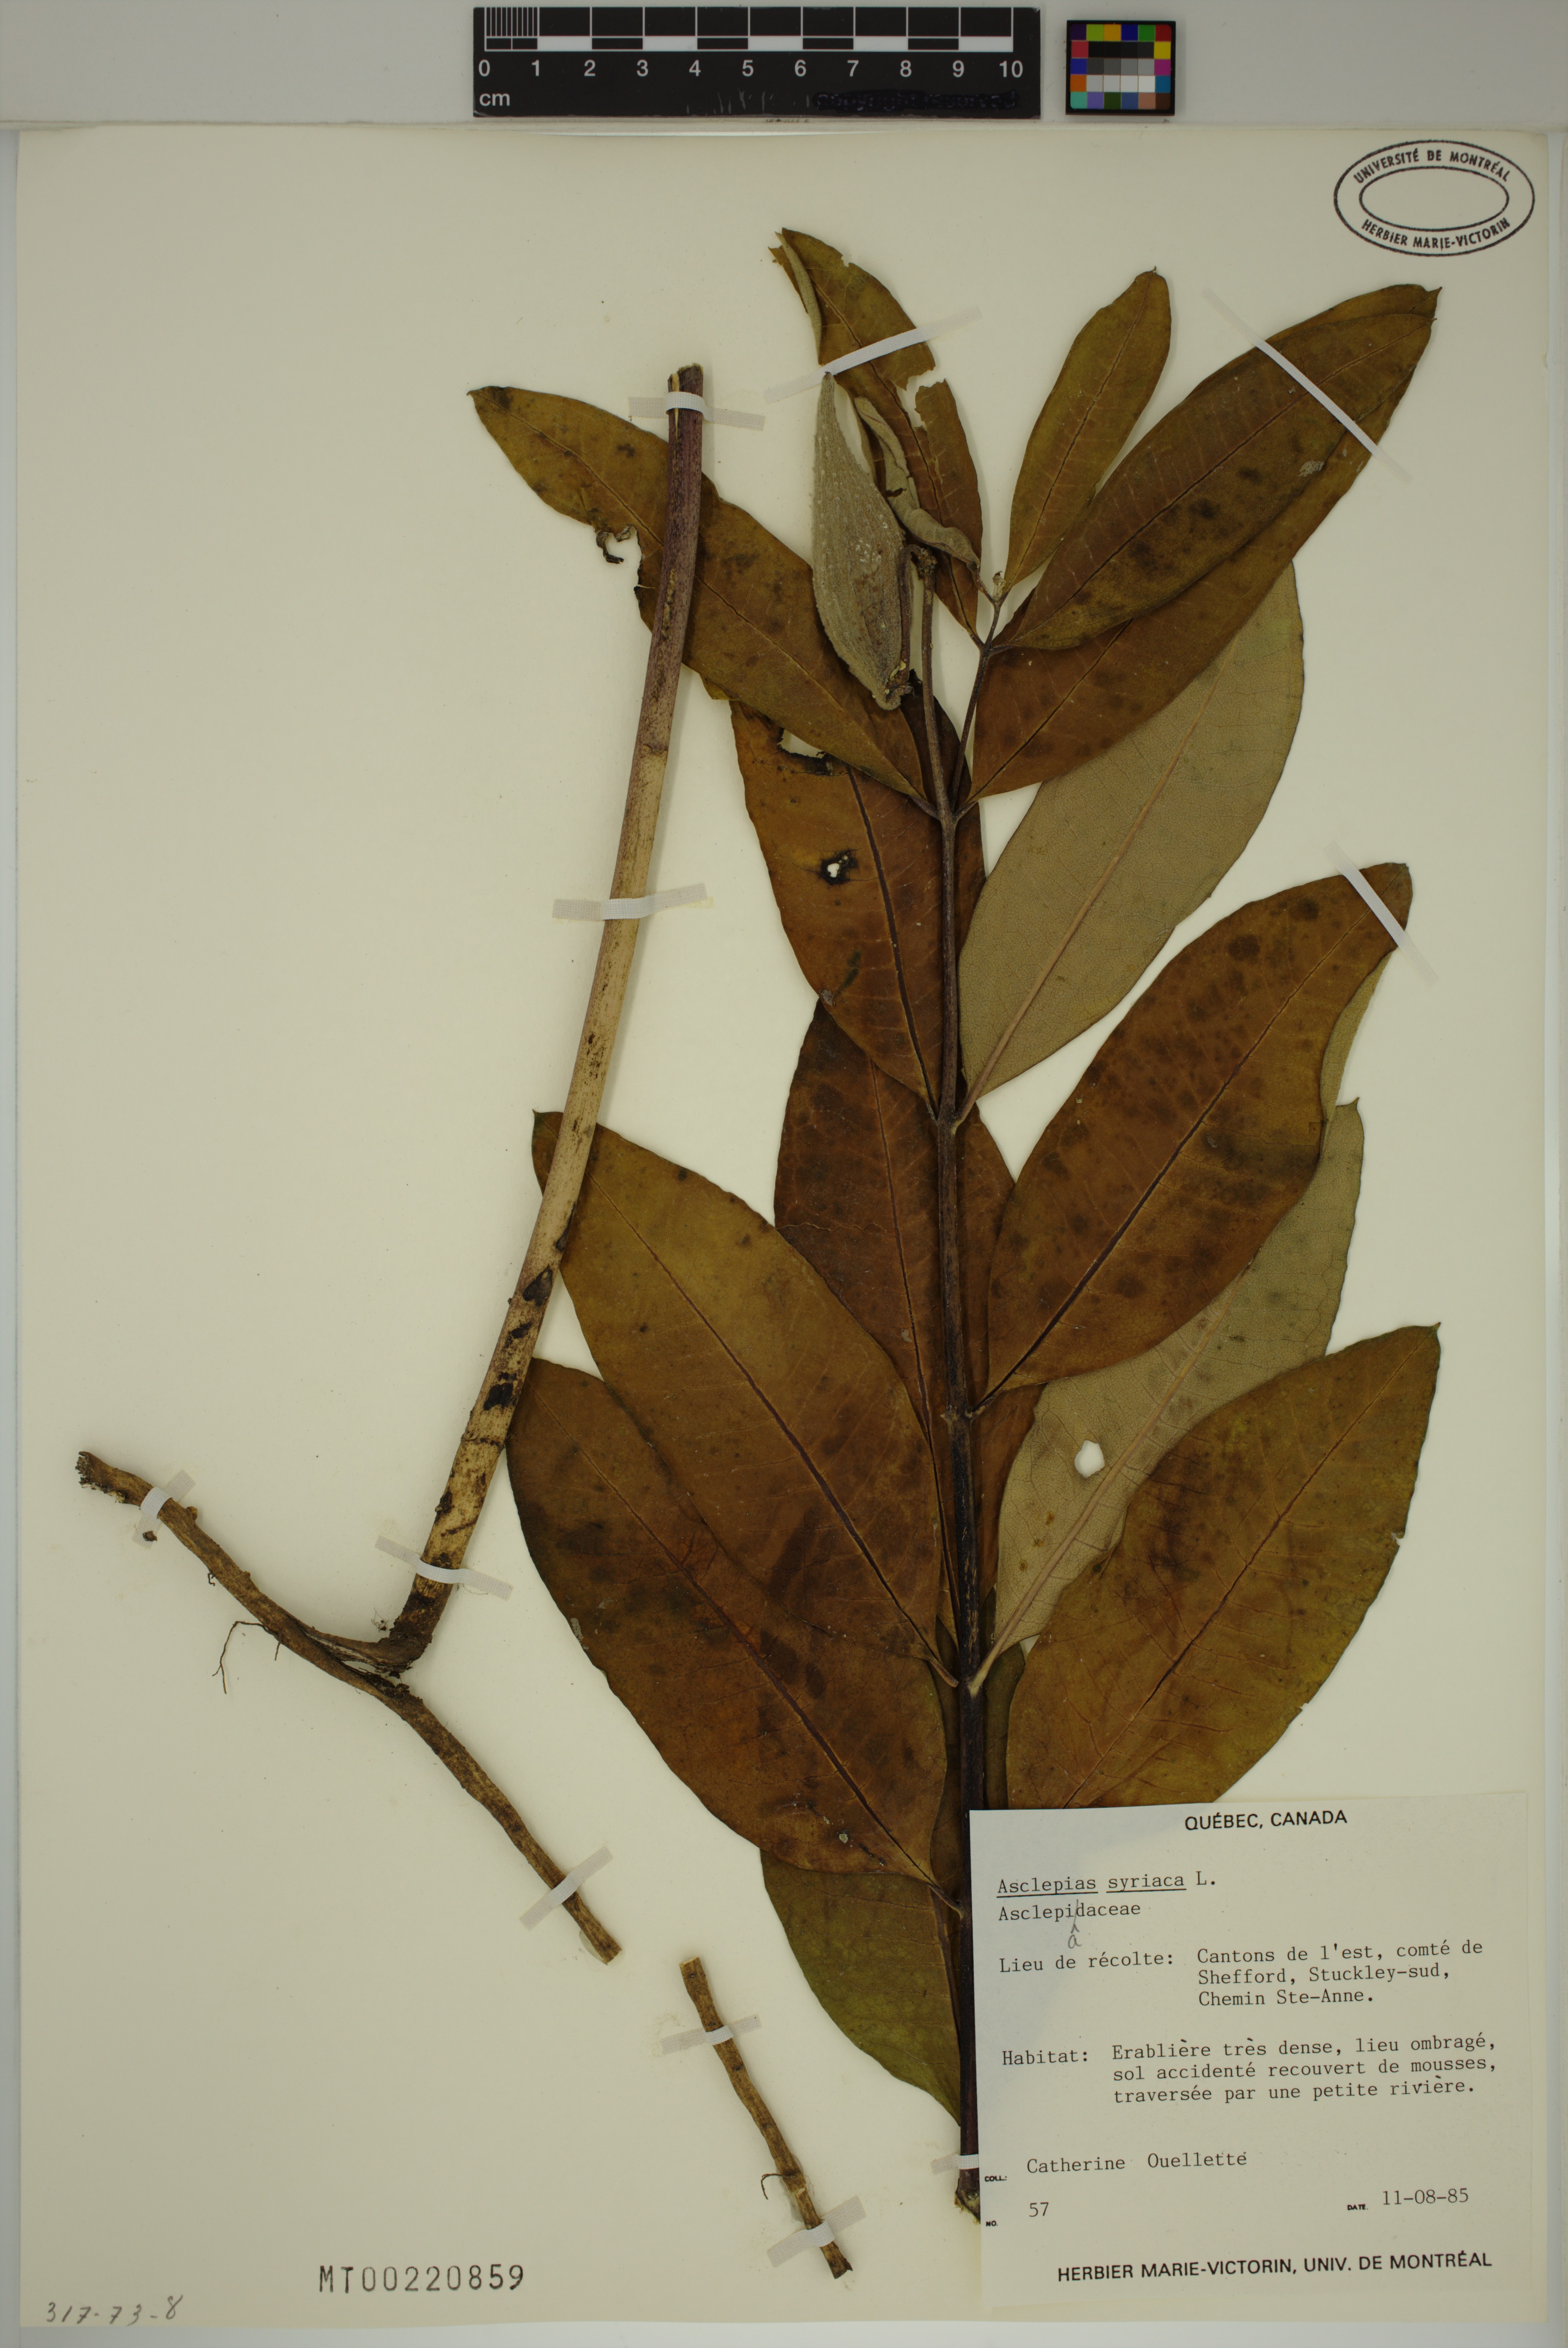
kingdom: Plantae
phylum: Tracheophyta
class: Magnoliopsida
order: Gentianales
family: Apocynaceae
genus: Asclepias
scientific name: Asclepias syriaca
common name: Common milkweed
